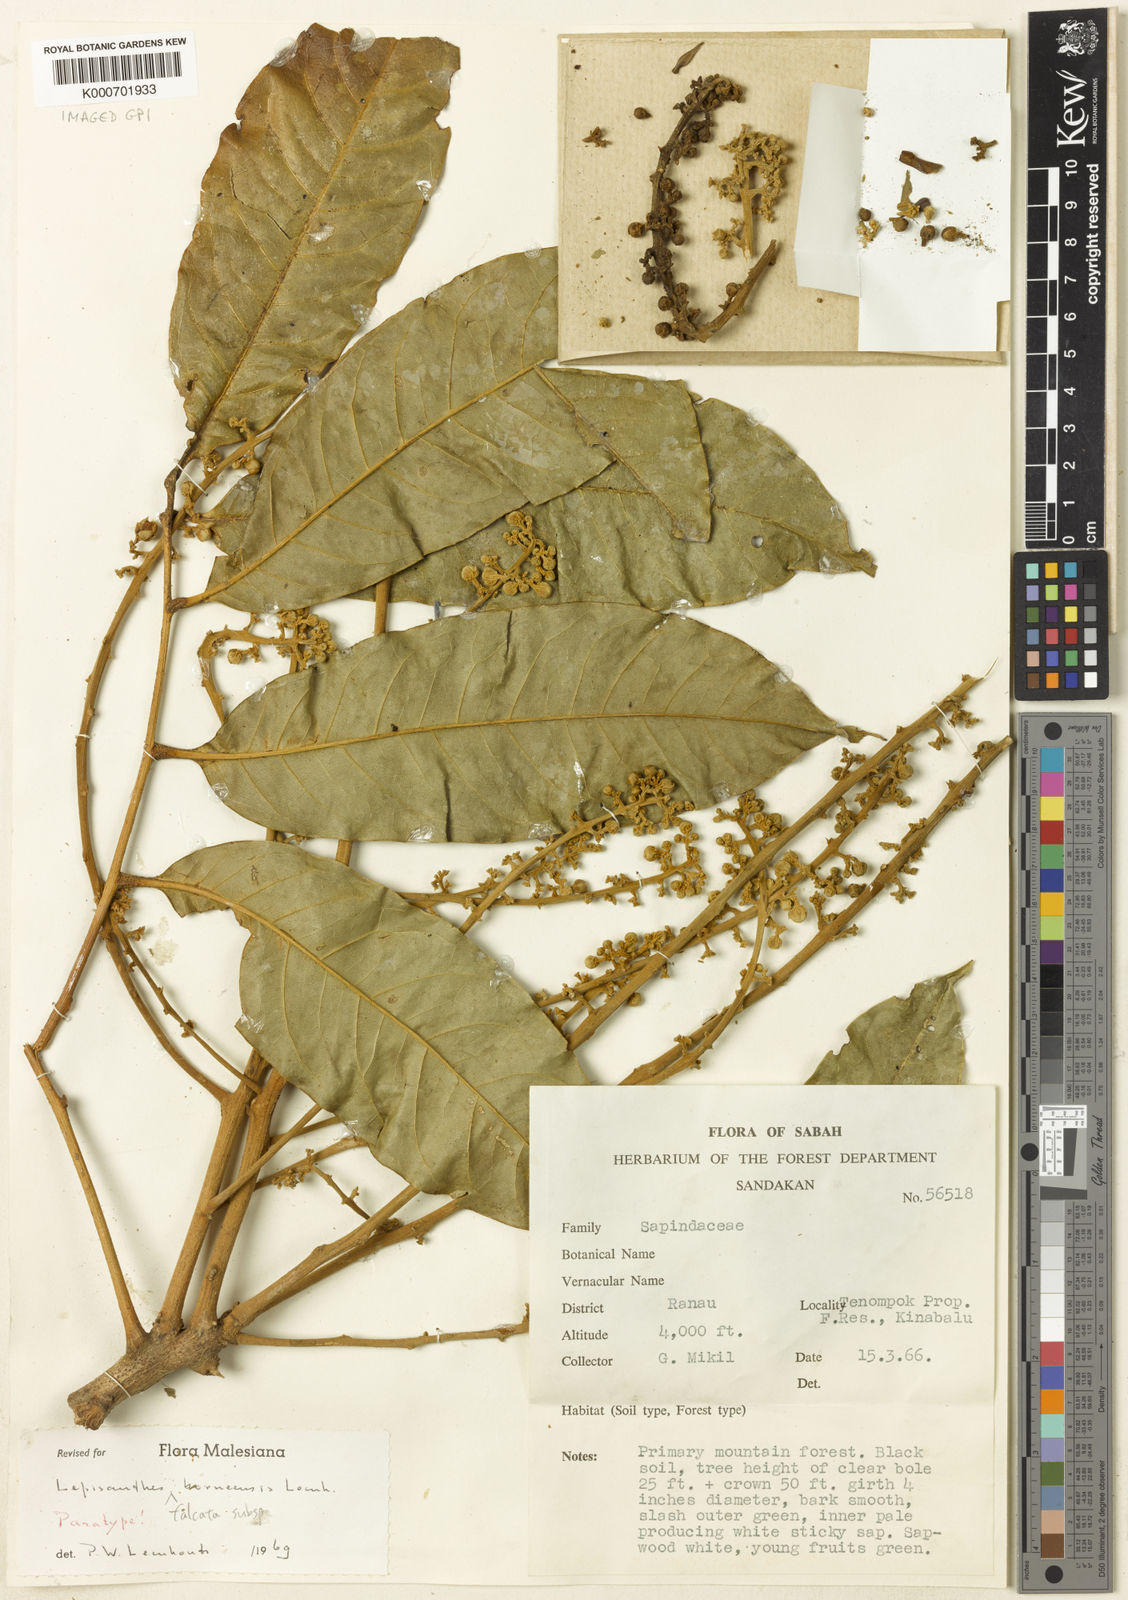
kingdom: Plantae
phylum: Tracheophyta
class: Magnoliopsida
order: Sapindales
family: Sapindaceae
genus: Lepisanthes
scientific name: Lepisanthes falcata
